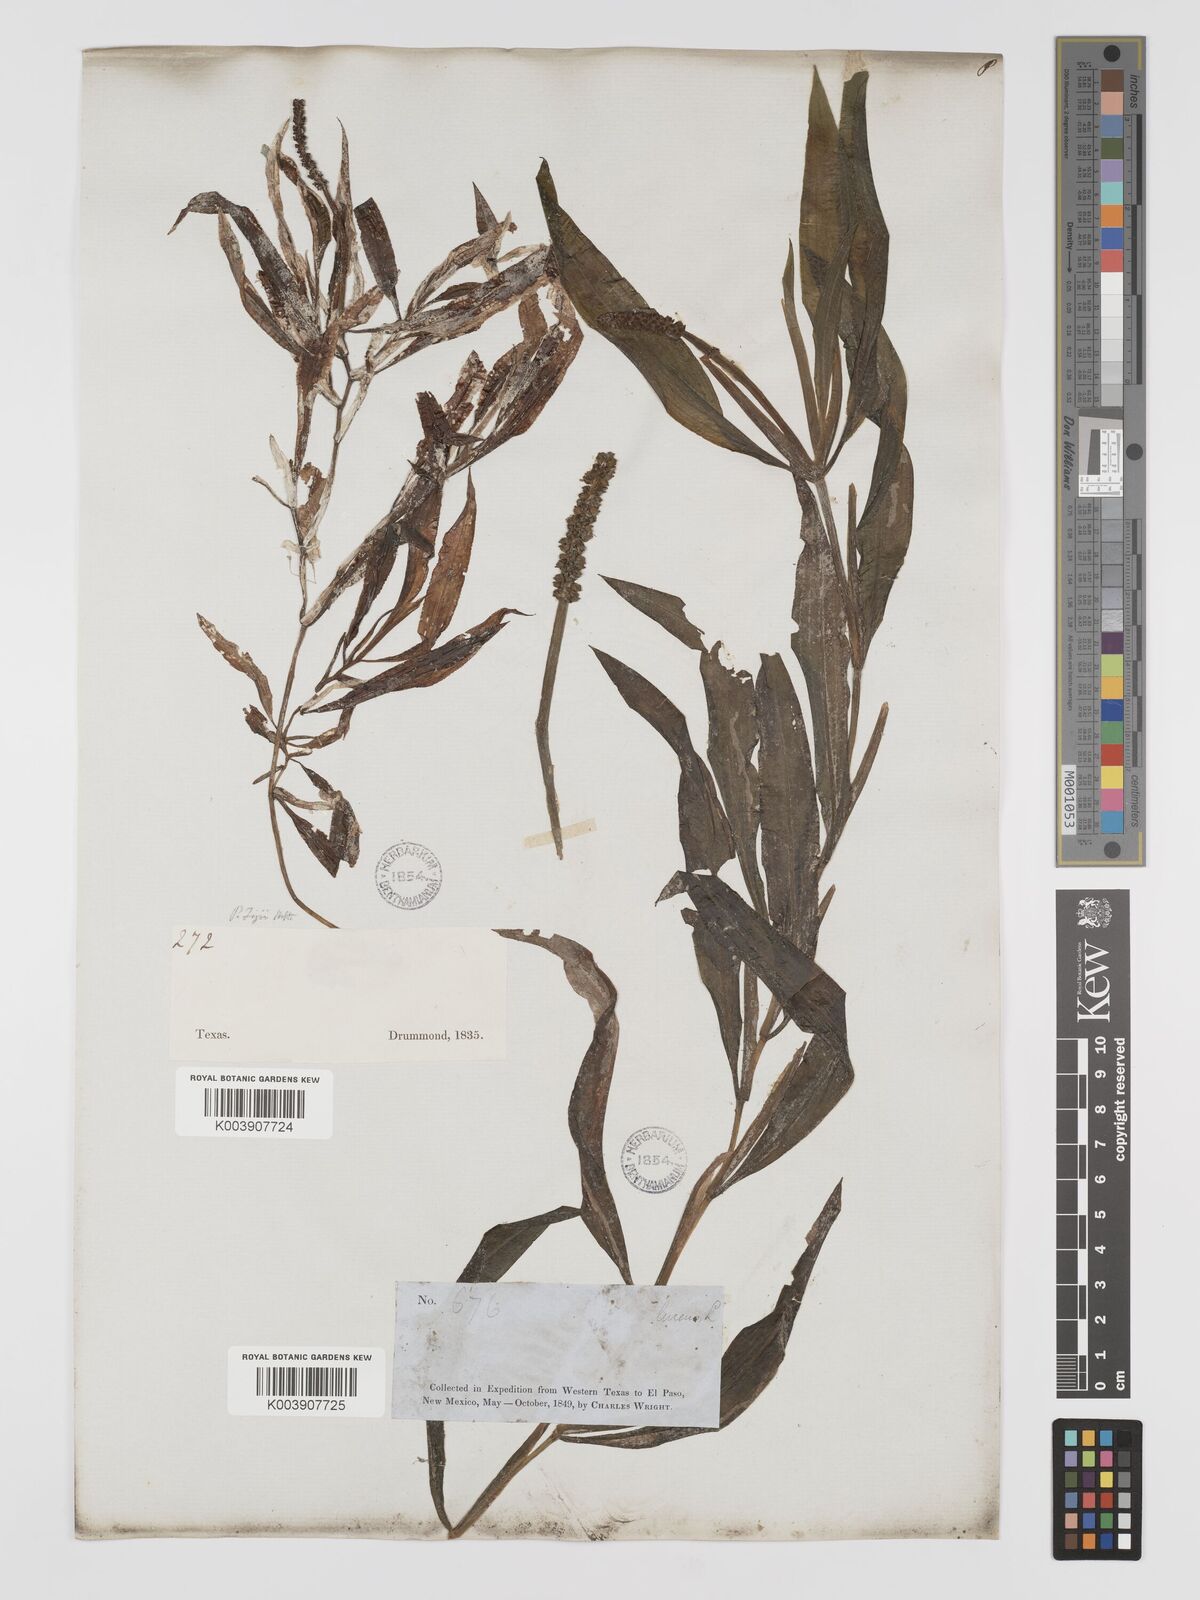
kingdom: Plantae
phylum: Tracheophyta
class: Liliopsida
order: Alismatales
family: Potamogetonaceae
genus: Potamogeton
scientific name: Potamogeton lucens
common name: Shining pondweed
